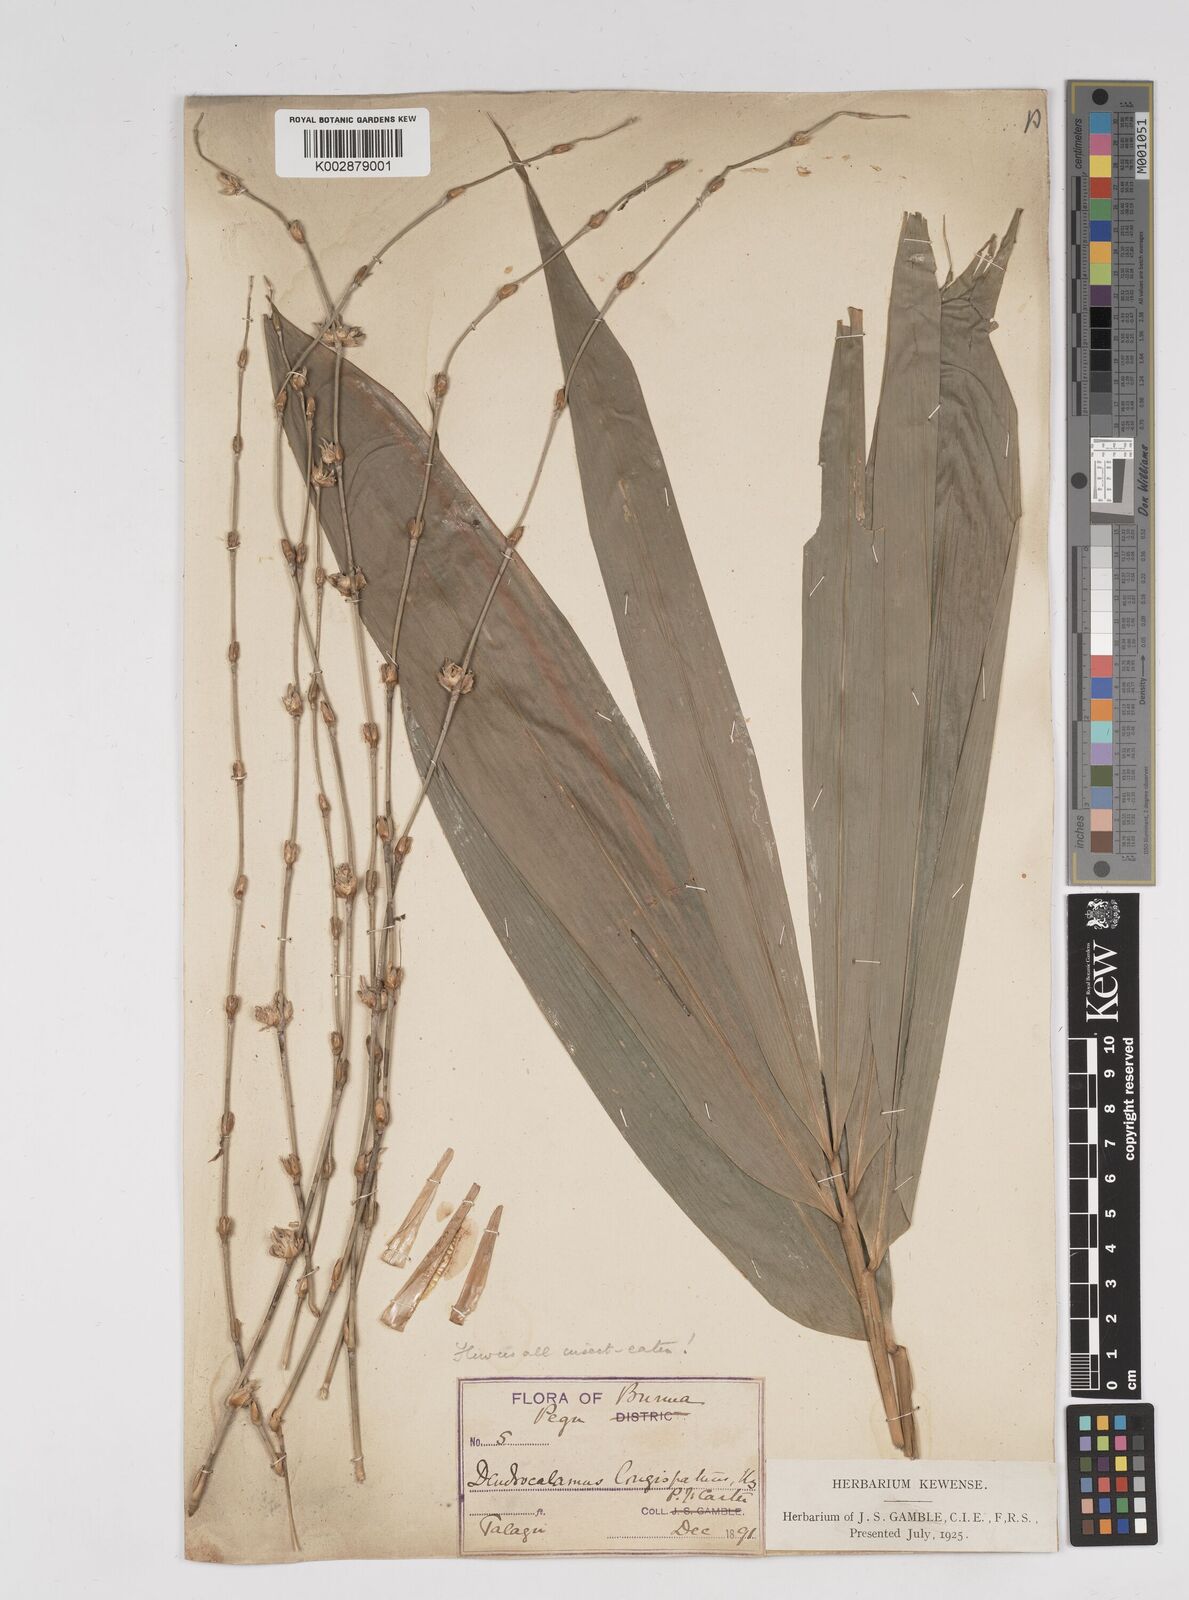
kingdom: Plantae
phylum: Tracheophyta
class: Liliopsida
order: Poales
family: Poaceae
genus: Dendrocalamus
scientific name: Dendrocalamus longispathus
